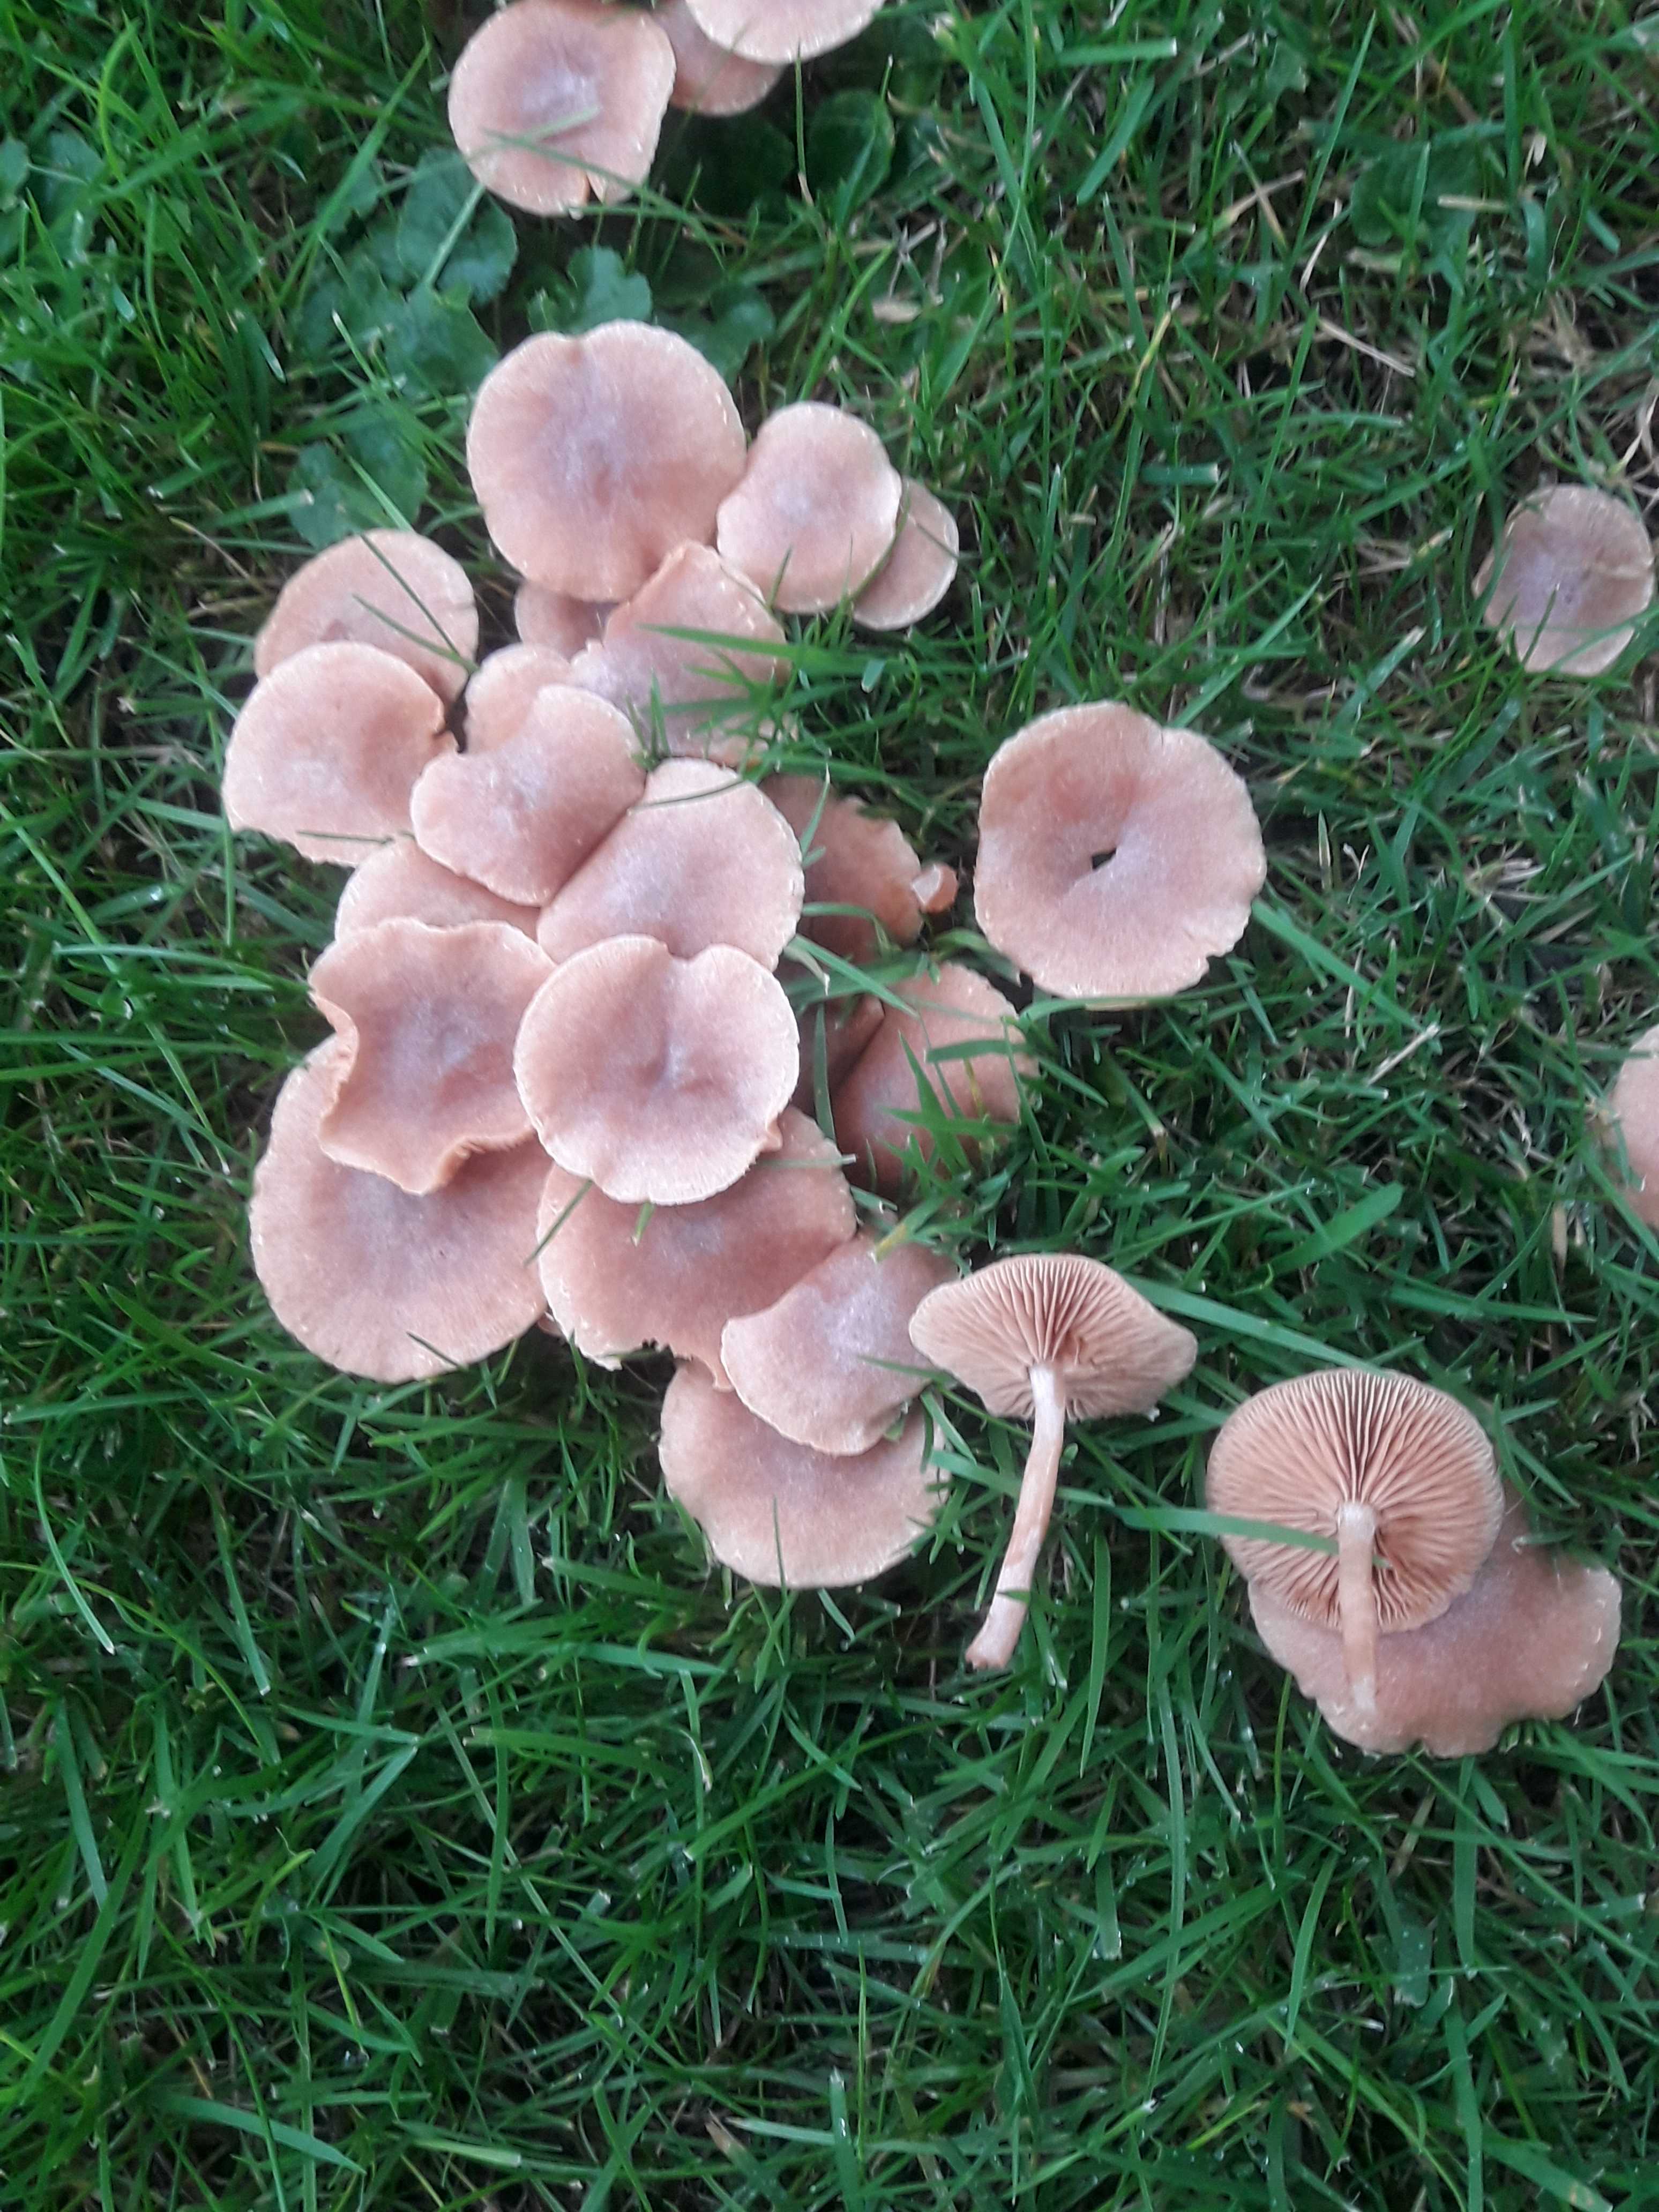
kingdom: Fungi
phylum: Basidiomycota
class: Agaricomycetes
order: Agaricales
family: Tubariaceae
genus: Tubaria
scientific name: Tubaria furfuracea
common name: kliddet fnughat
